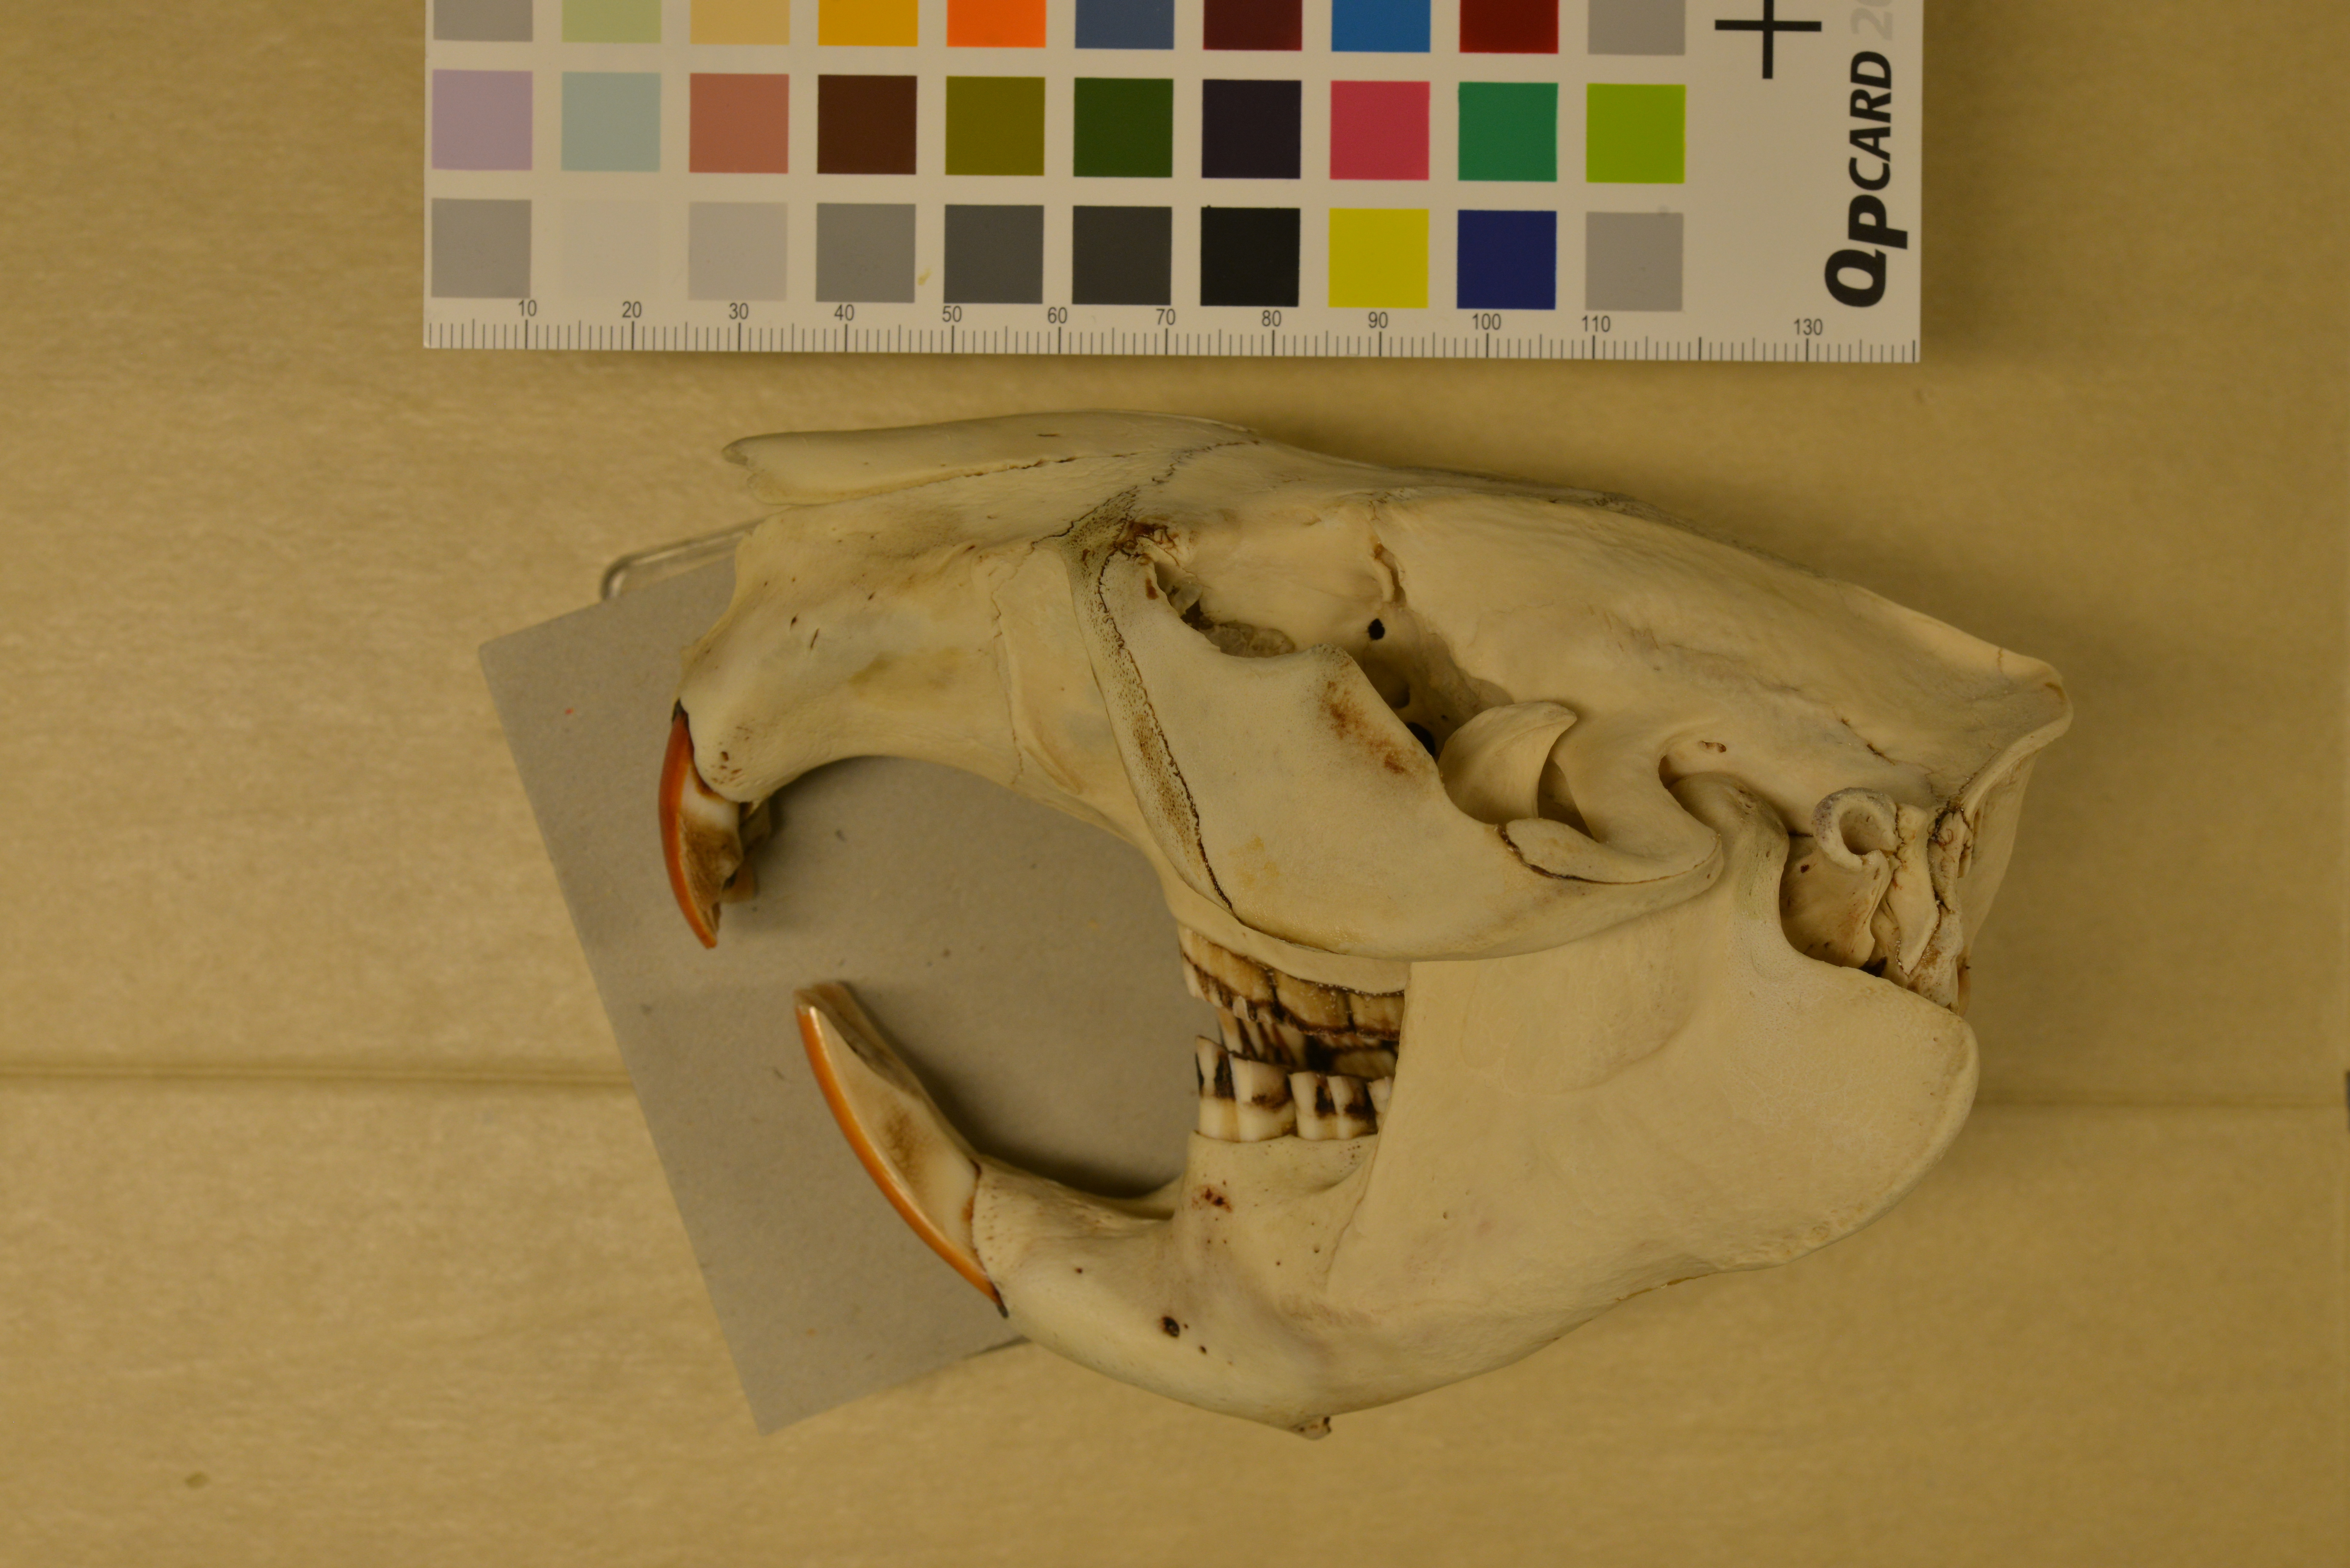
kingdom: Animalia
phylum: Chordata
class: Mammalia
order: Rodentia
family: Castoridae
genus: Castor
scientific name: Castor fiber
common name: Eurasian beaver
